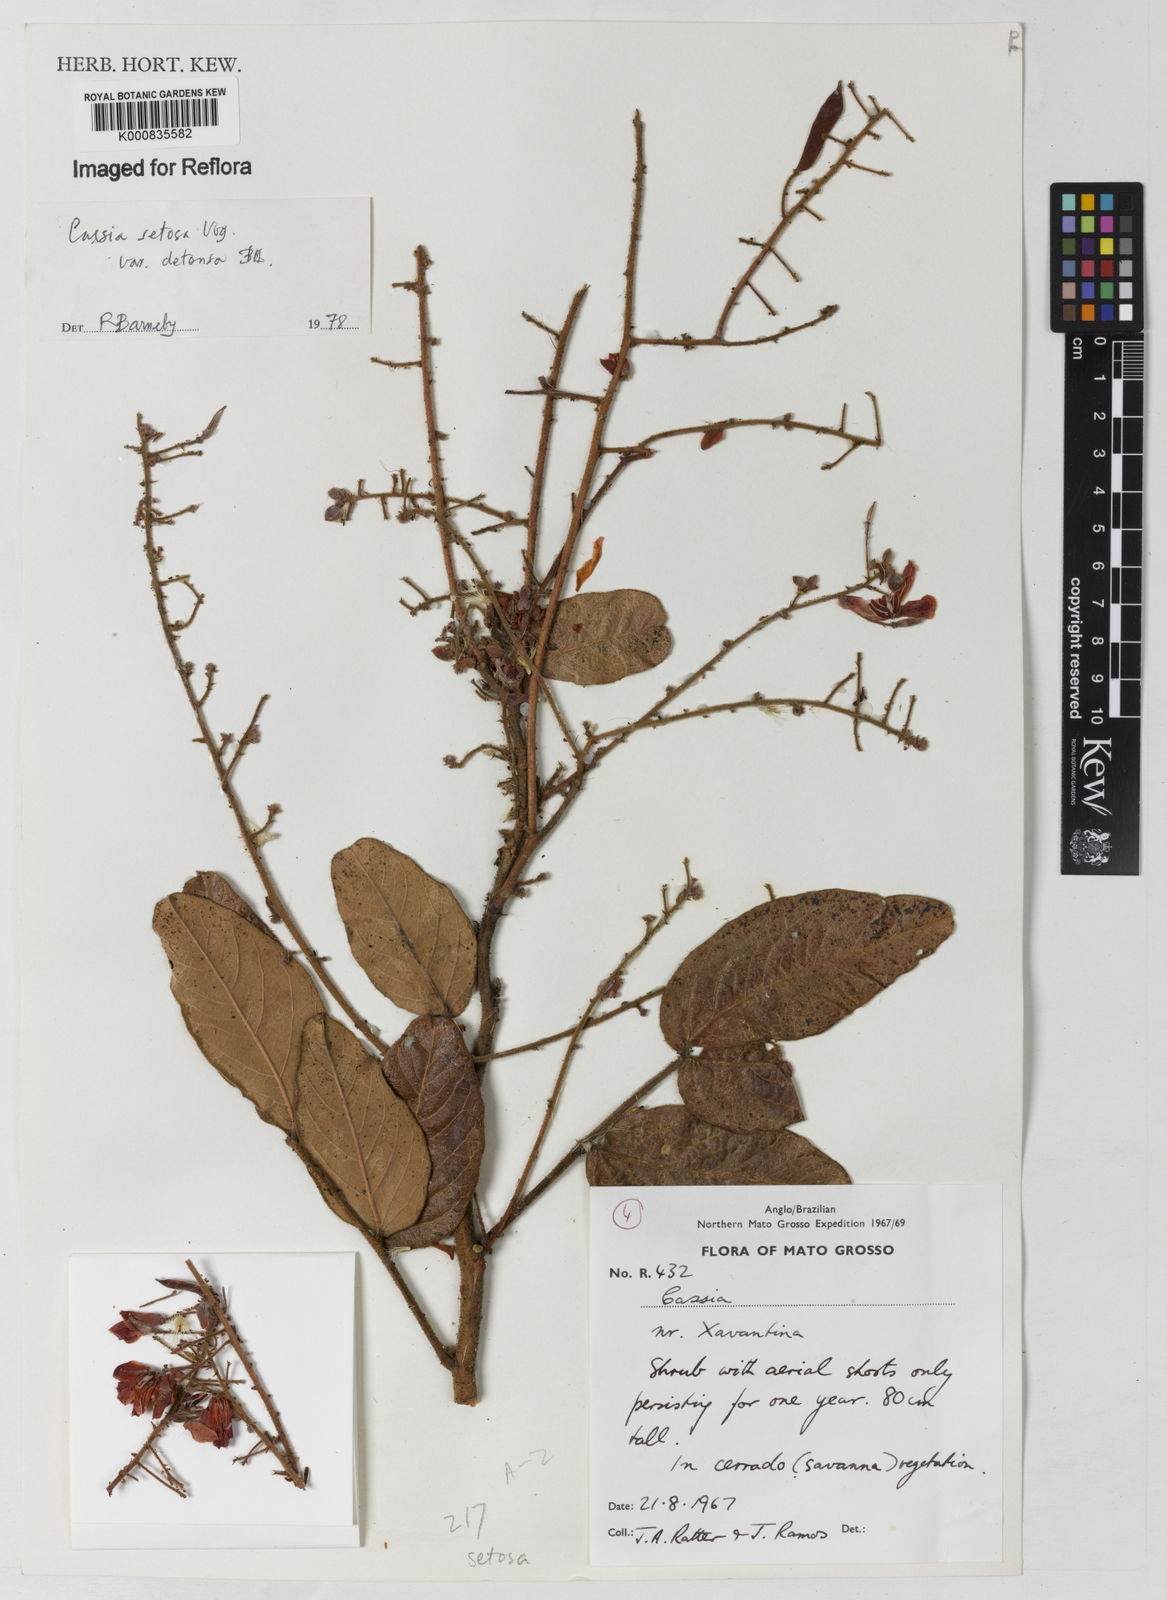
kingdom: Plantae
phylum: Tracheophyta
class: Magnoliopsida
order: Fabales
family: Fabaceae
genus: Chamaecrista
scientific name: Chamaecrista setosa
